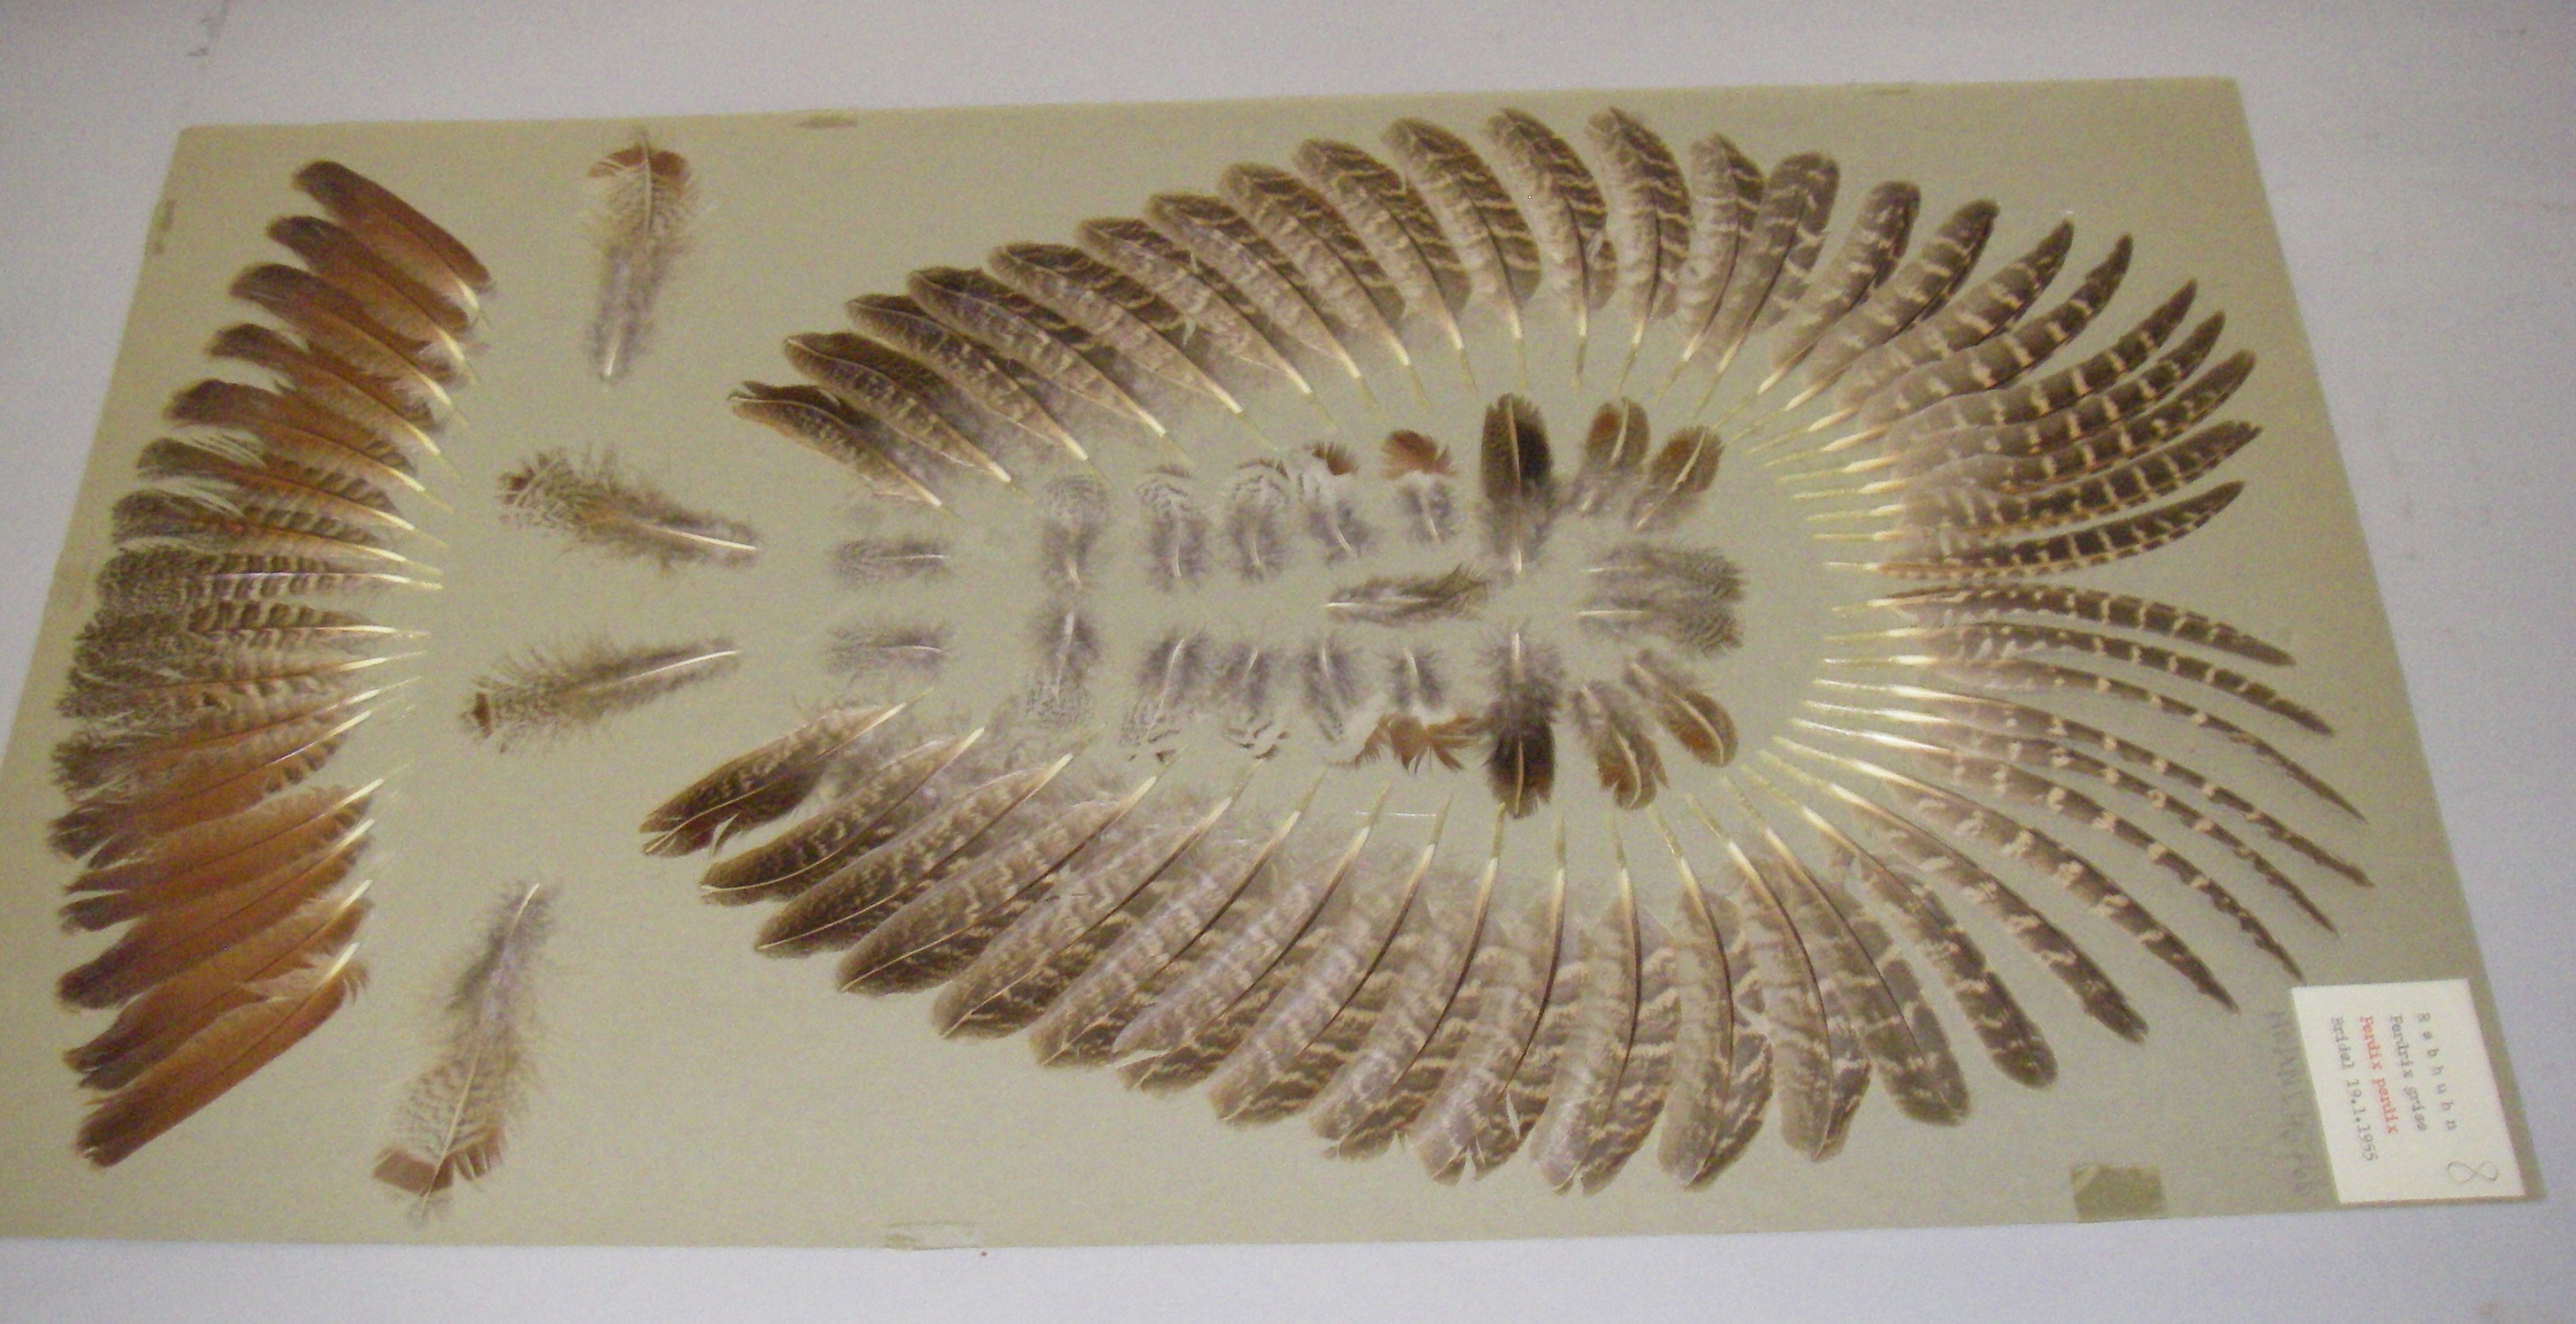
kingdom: Animalia
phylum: Chordata
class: Aves
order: Galliformes
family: Phasianidae
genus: Perdix
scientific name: Perdix perdix
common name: Grey partridge
